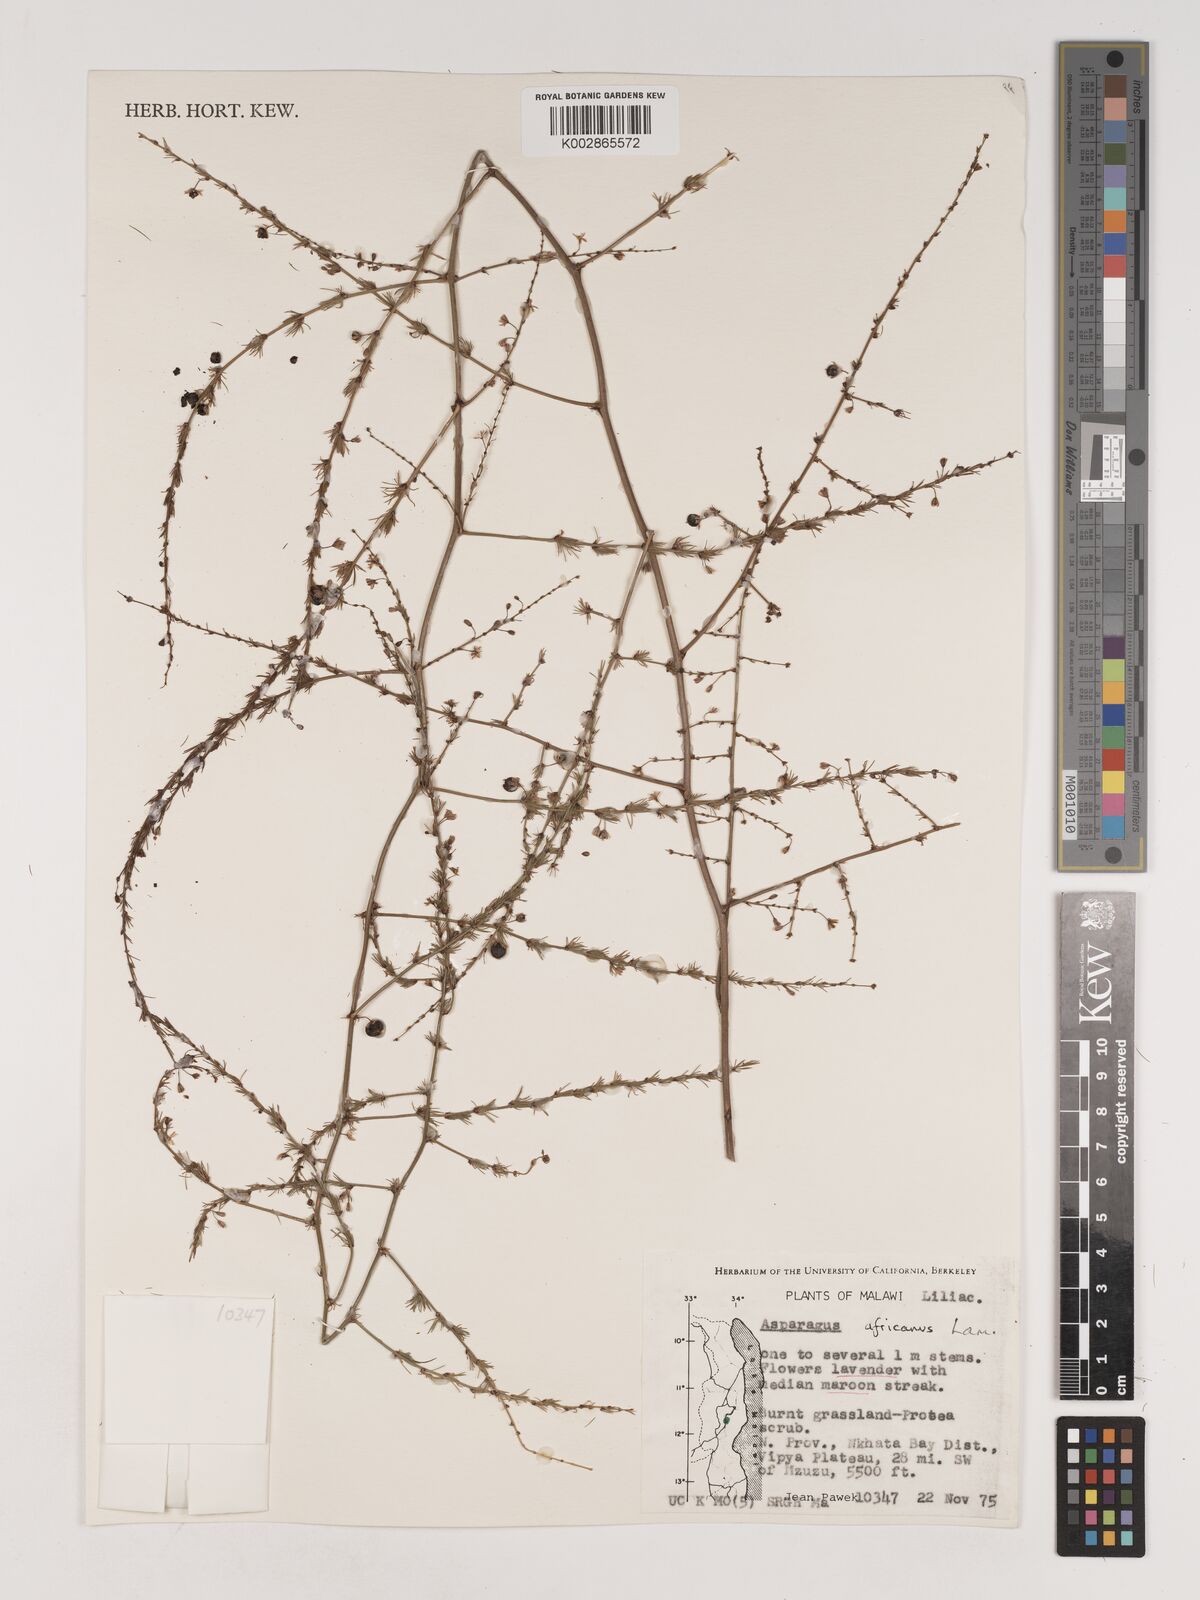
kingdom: Plantae
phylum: Tracheophyta
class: Liliopsida
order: Asparagales
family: Asparagaceae
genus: Asparagus
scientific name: Asparagus africanus
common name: Asparagus-fern
